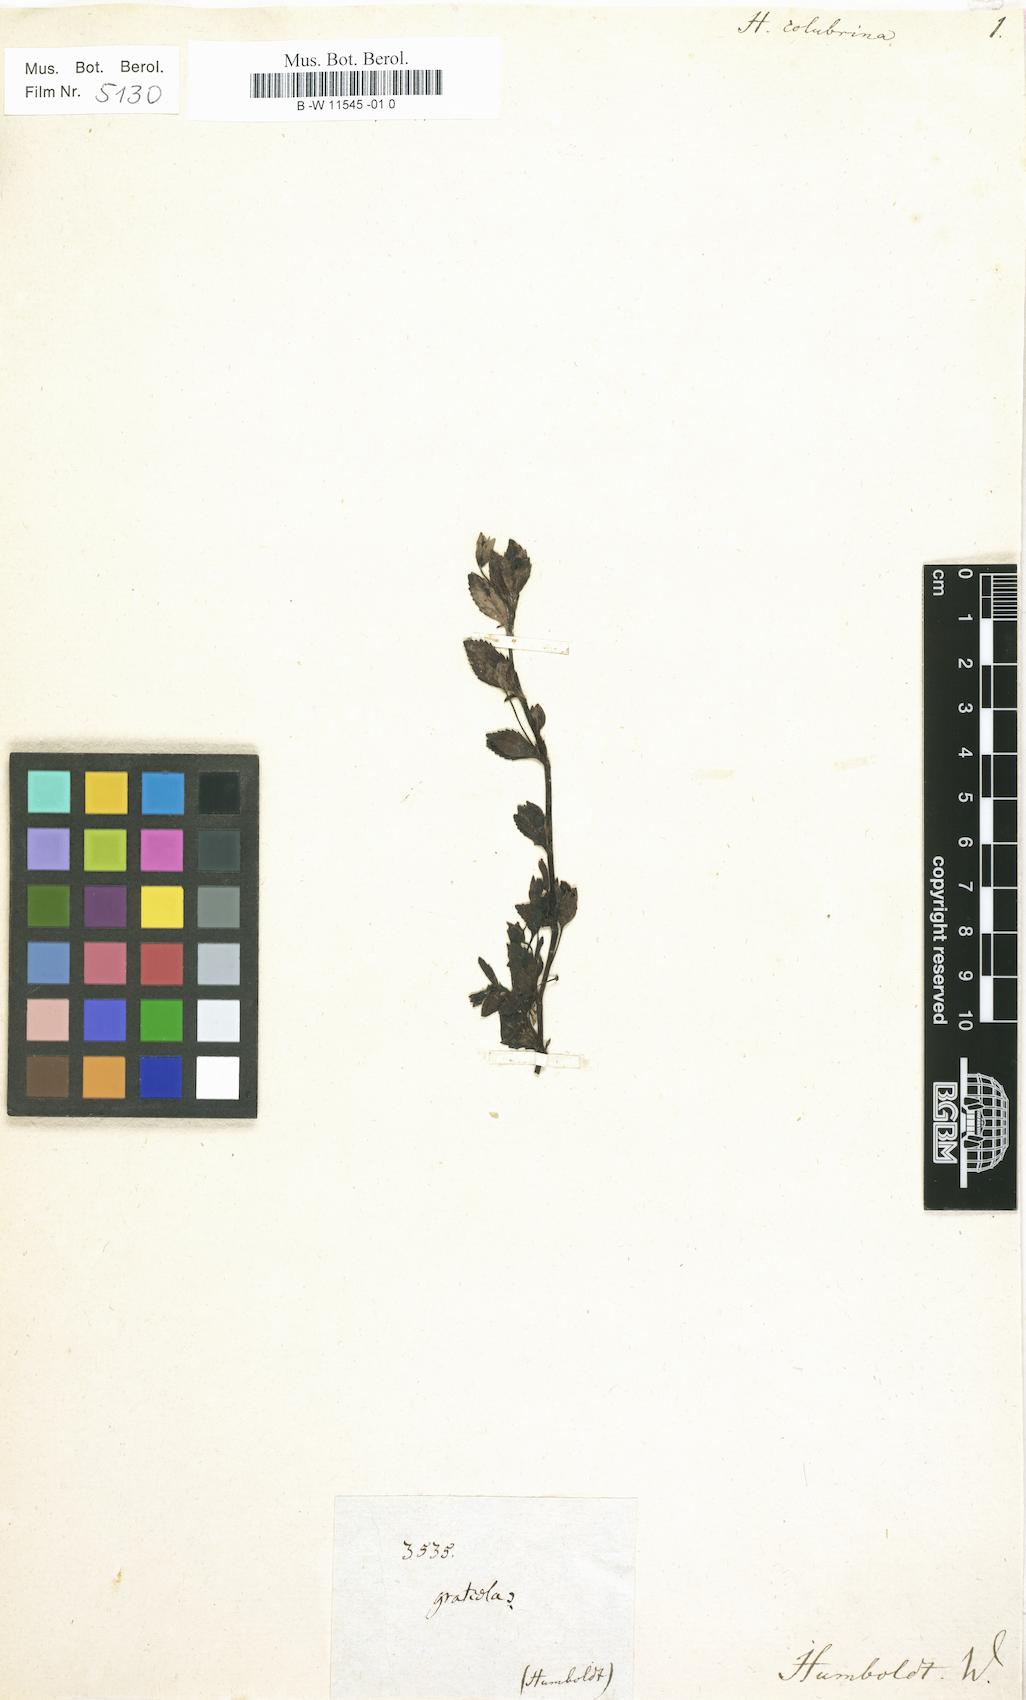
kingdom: Plantae
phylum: Tracheophyta
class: Magnoliopsida
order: Lamiales
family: Plantaginaceae
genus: Mecardonia
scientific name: Mecardonia procumbens
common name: Baby jump-up
